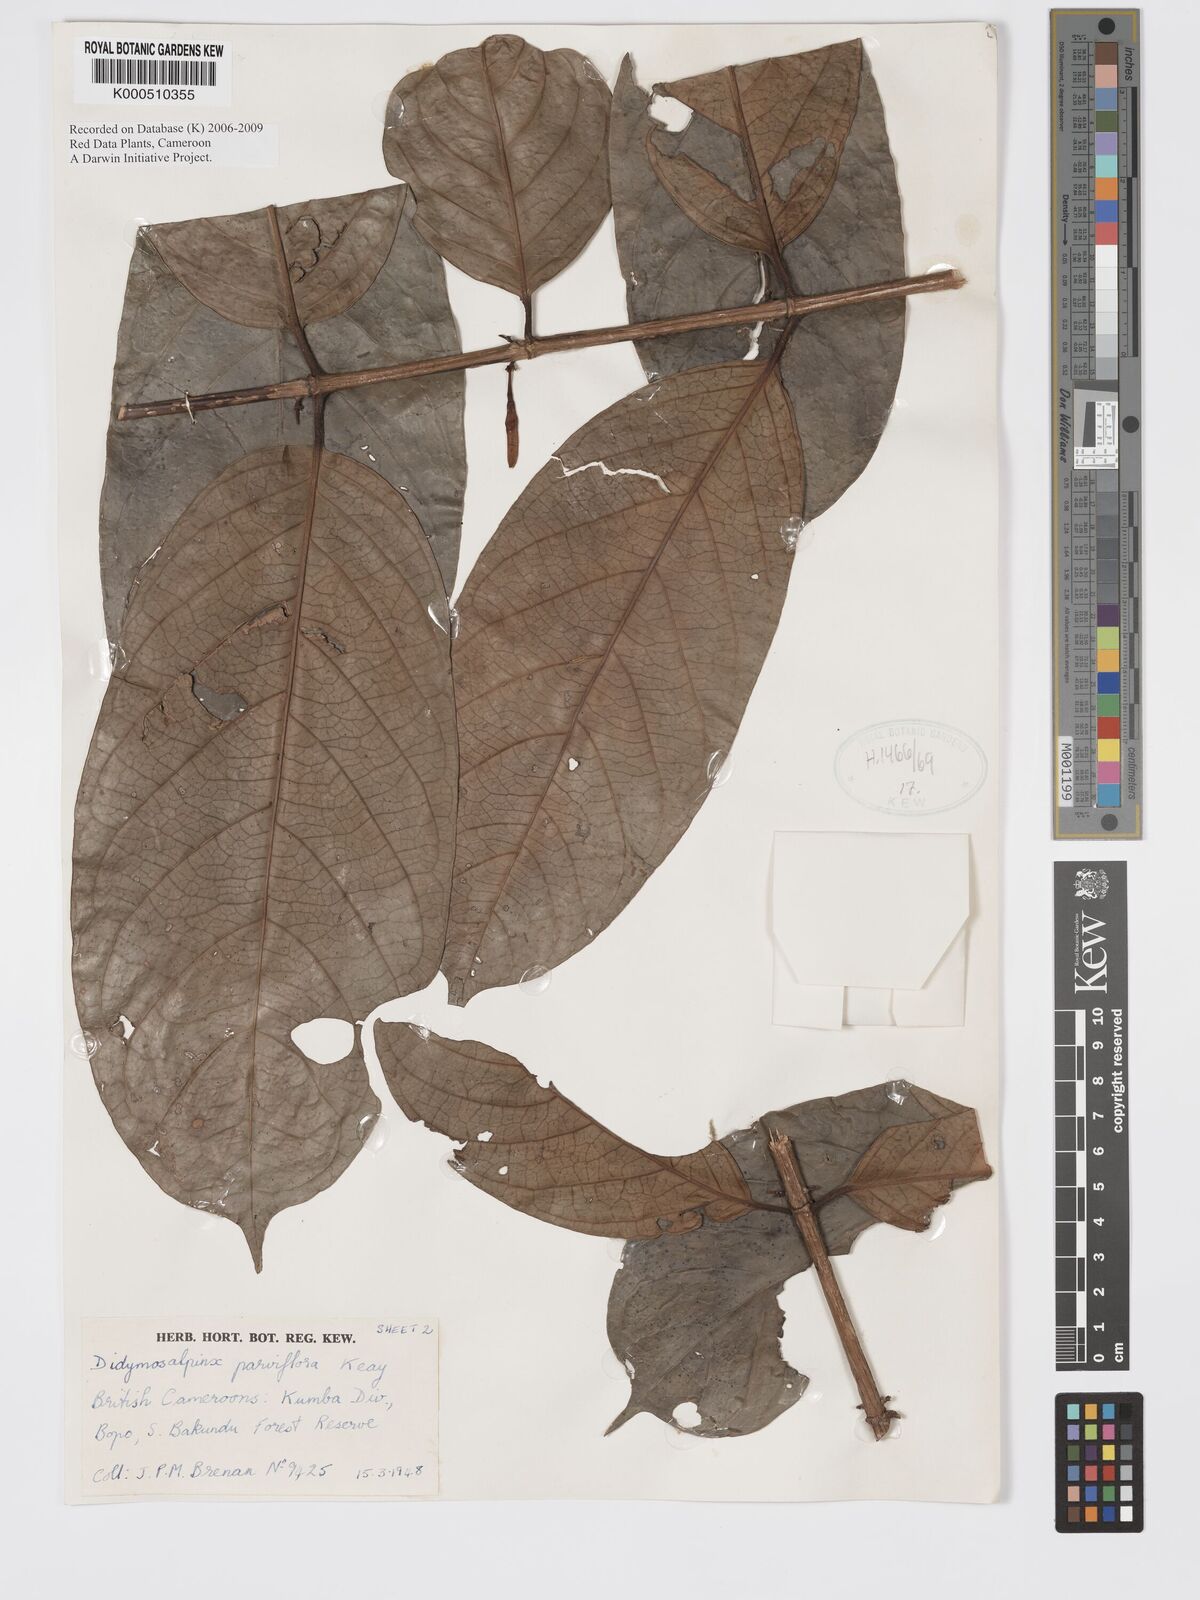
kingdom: Plantae
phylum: Tracheophyta
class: Magnoliopsida
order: Gentianales
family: Rubiaceae
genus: Petitiocodon
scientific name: Petitiocodon parviflorum
